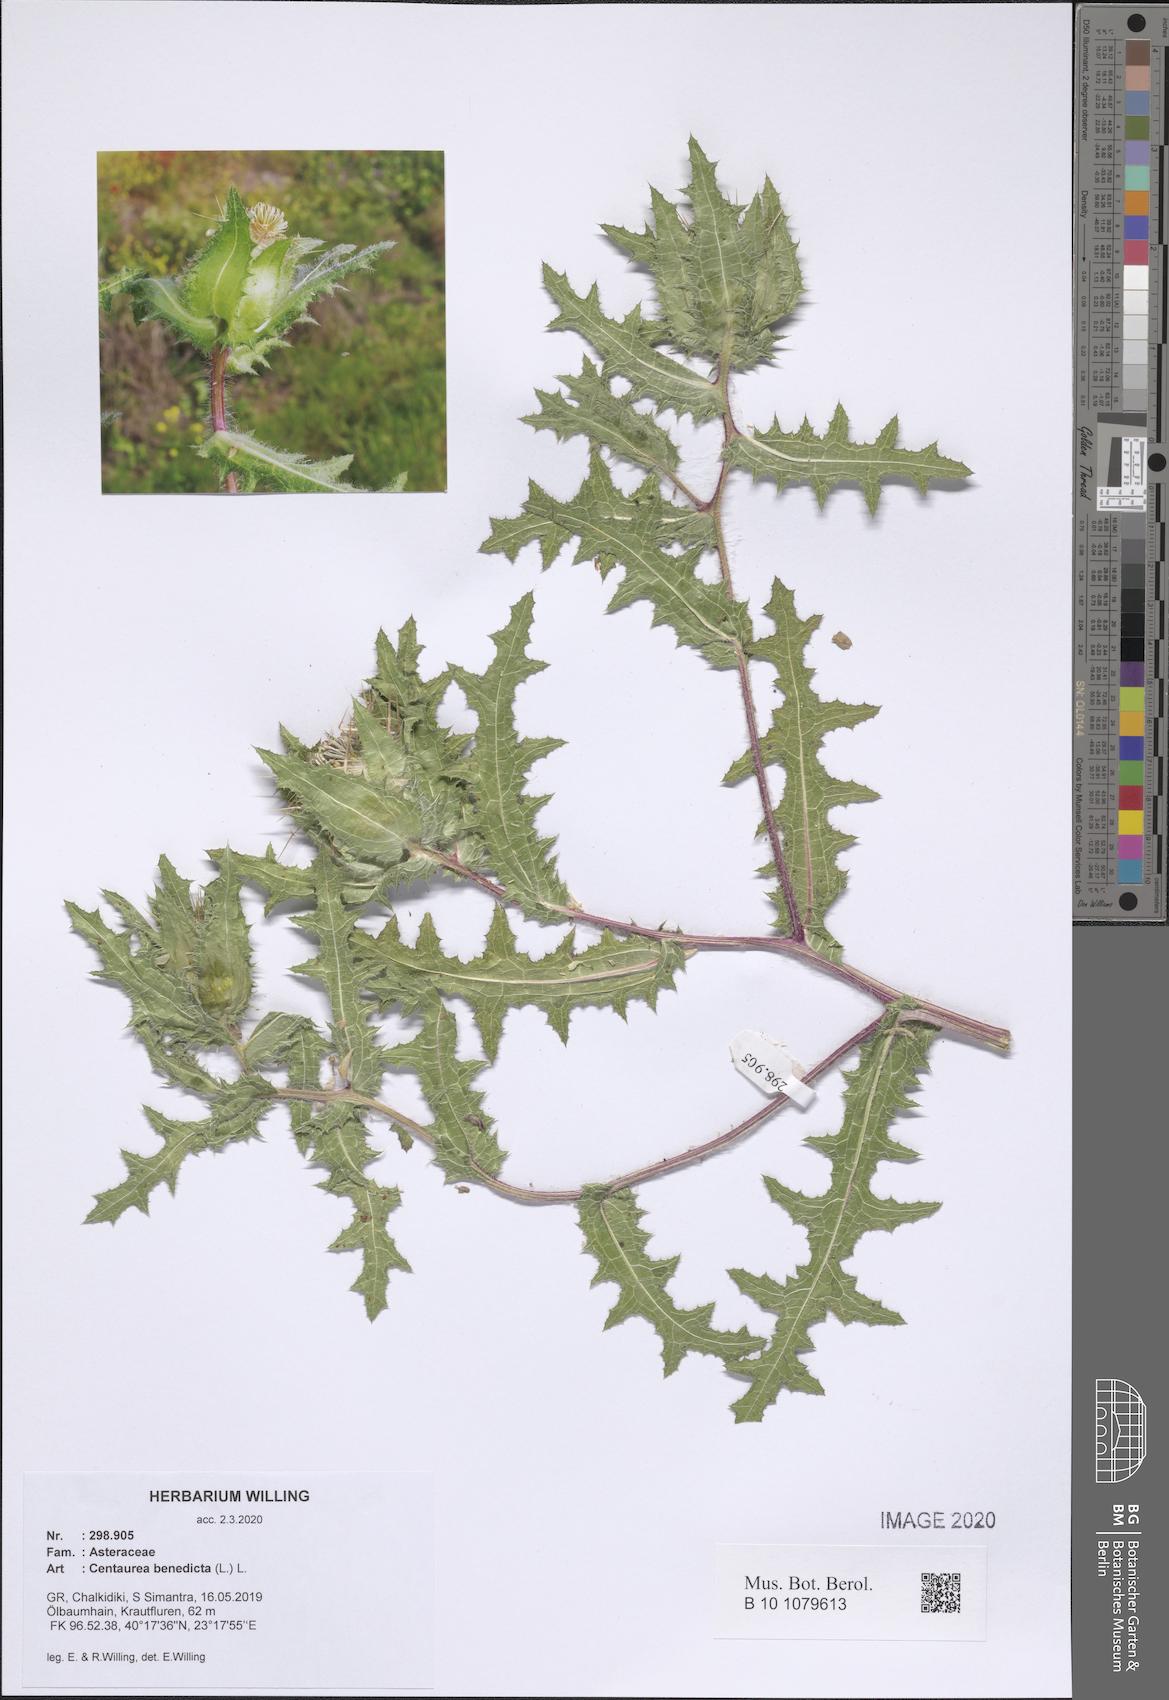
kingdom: Plantae
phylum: Tracheophyta
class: Magnoliopsida
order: Asterales
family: Asteraceae
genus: Centaurea
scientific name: Centaurea benedicta
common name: Blessed thistle
